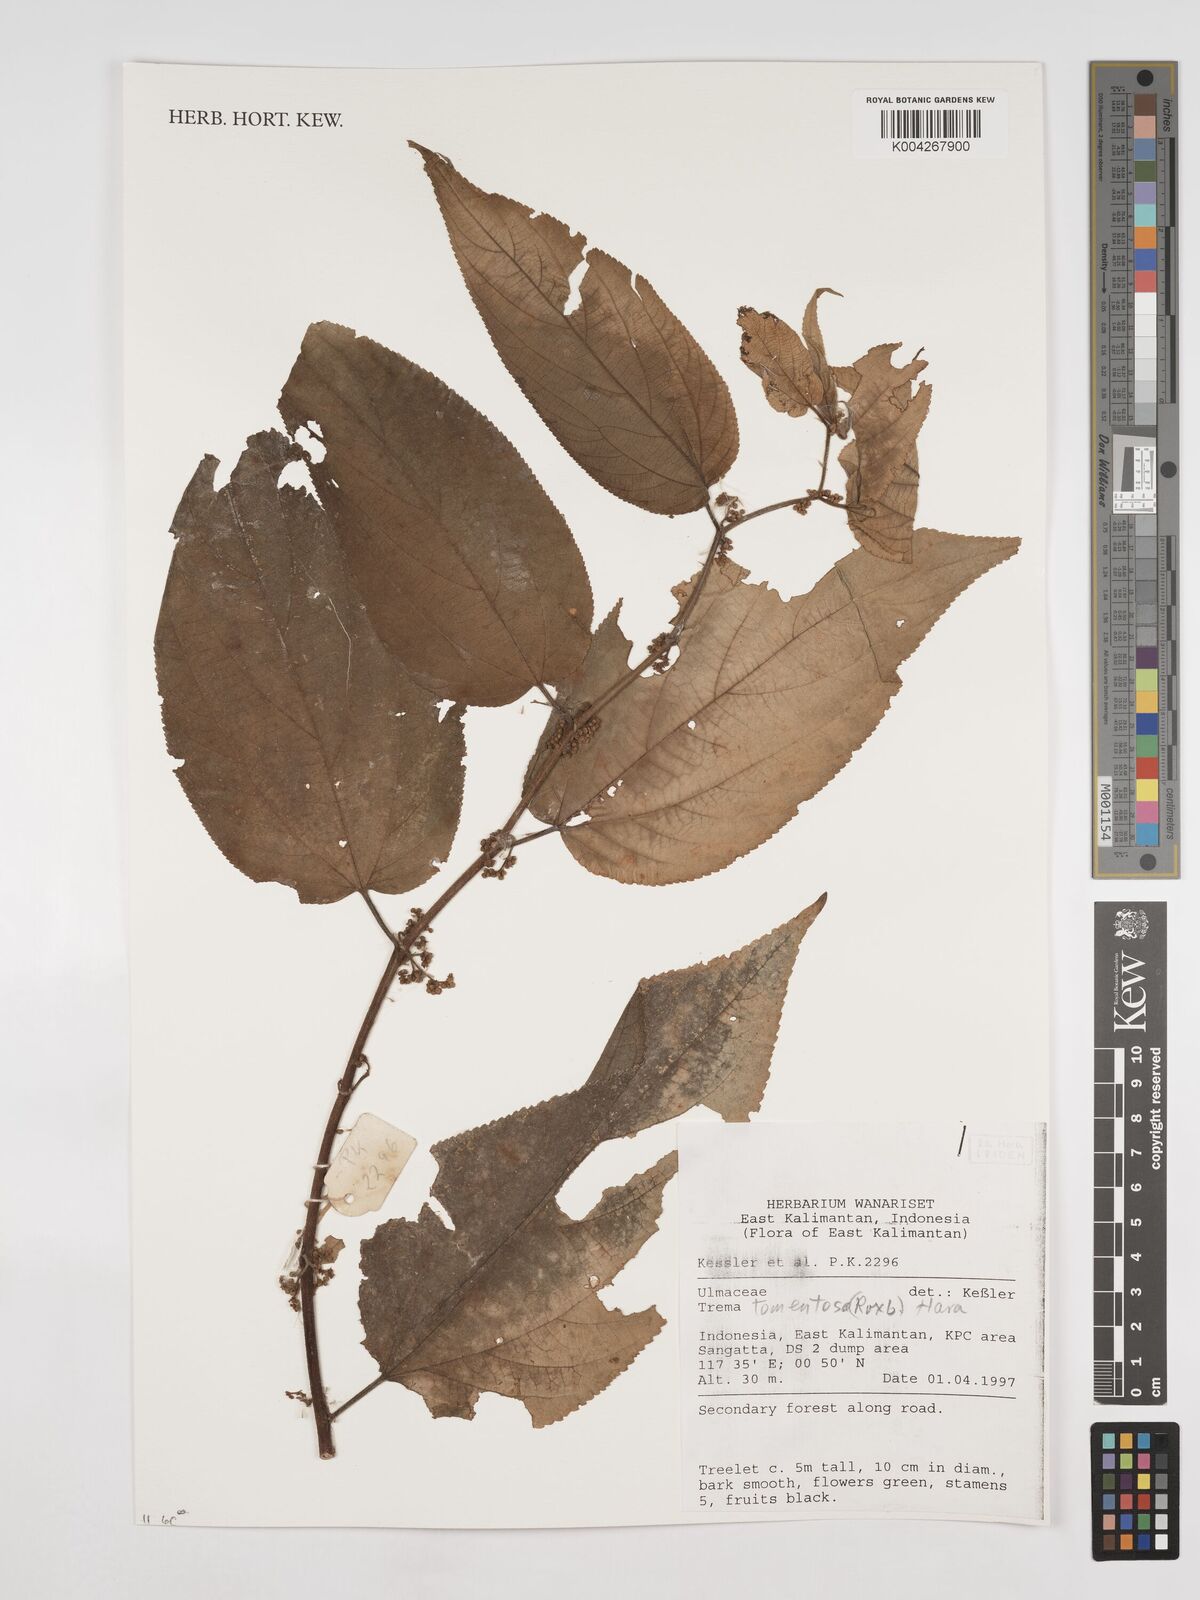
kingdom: Plantae
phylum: Tracheophyta
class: Magnoliopsida
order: Rosales
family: Cannabaceae
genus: Trema
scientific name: Trema tomentosum
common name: Peach-leaf-poisonbush
